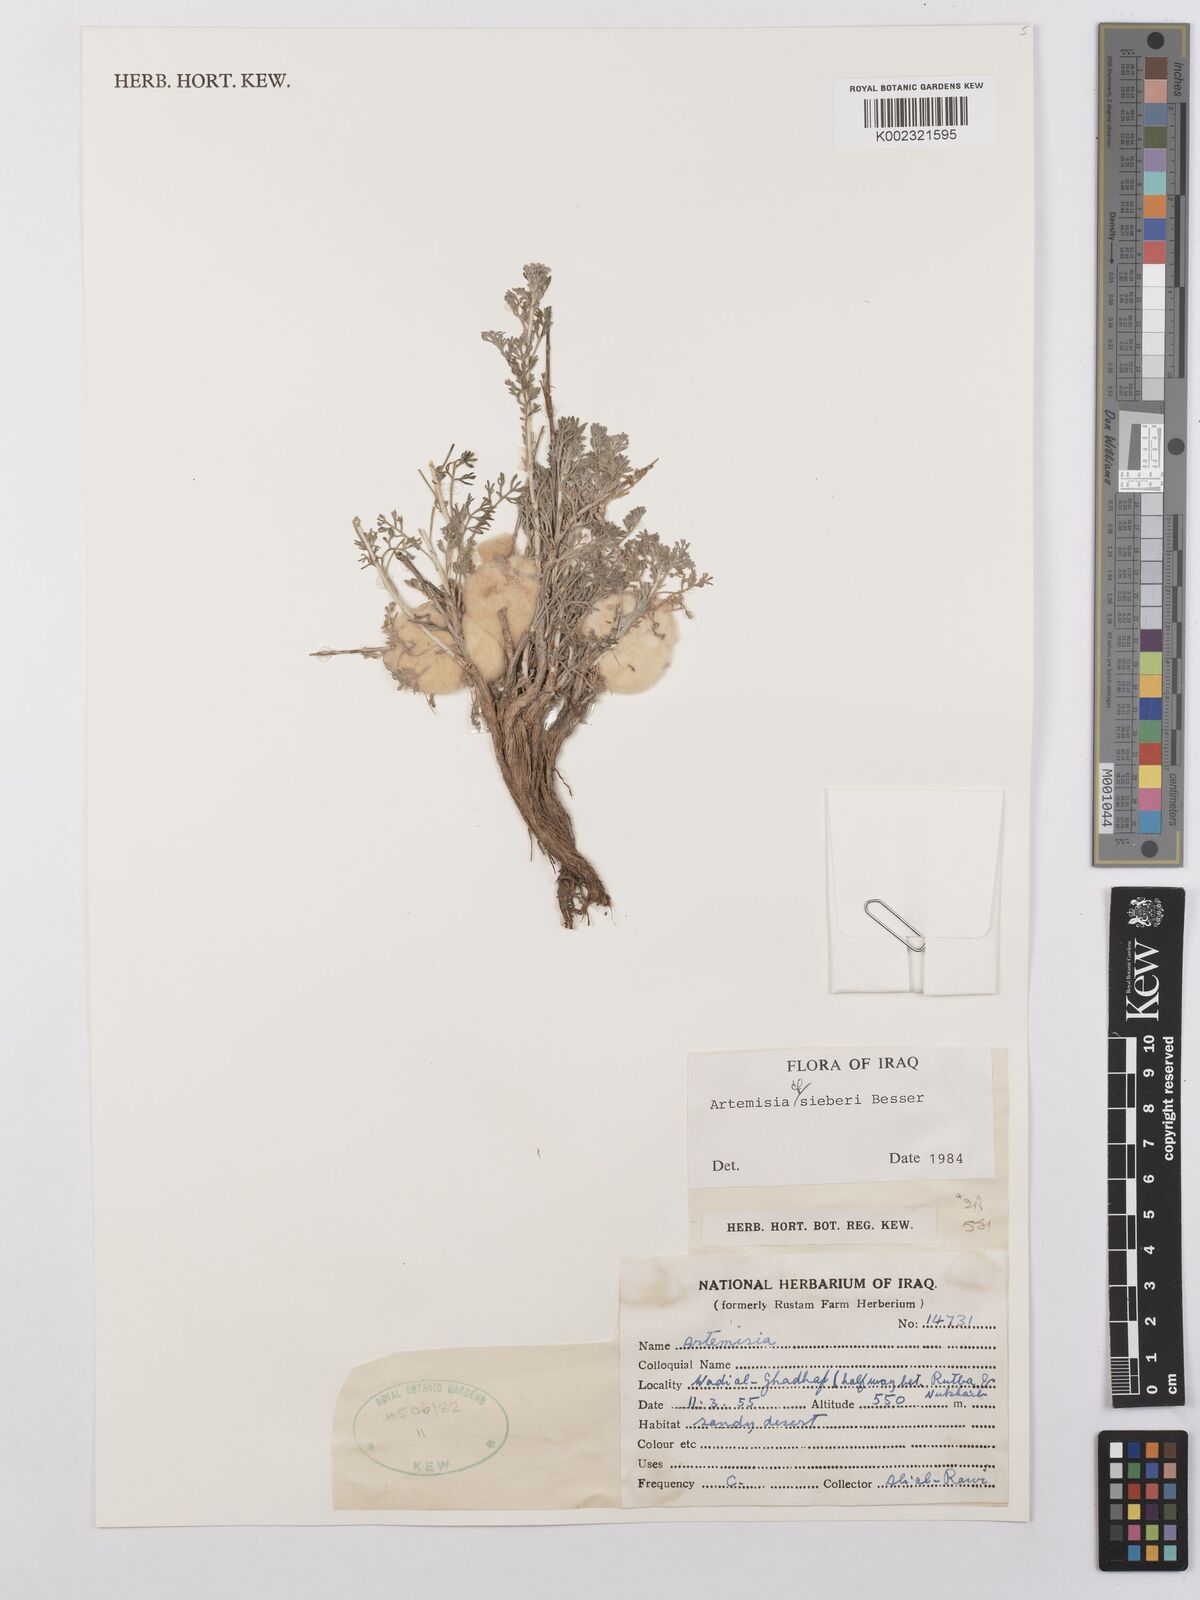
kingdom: Plantae
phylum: Tracheophyta
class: Magnoliopsida
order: Asterales
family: Asteraceae
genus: Artemisia
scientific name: Artemisia sieberi
